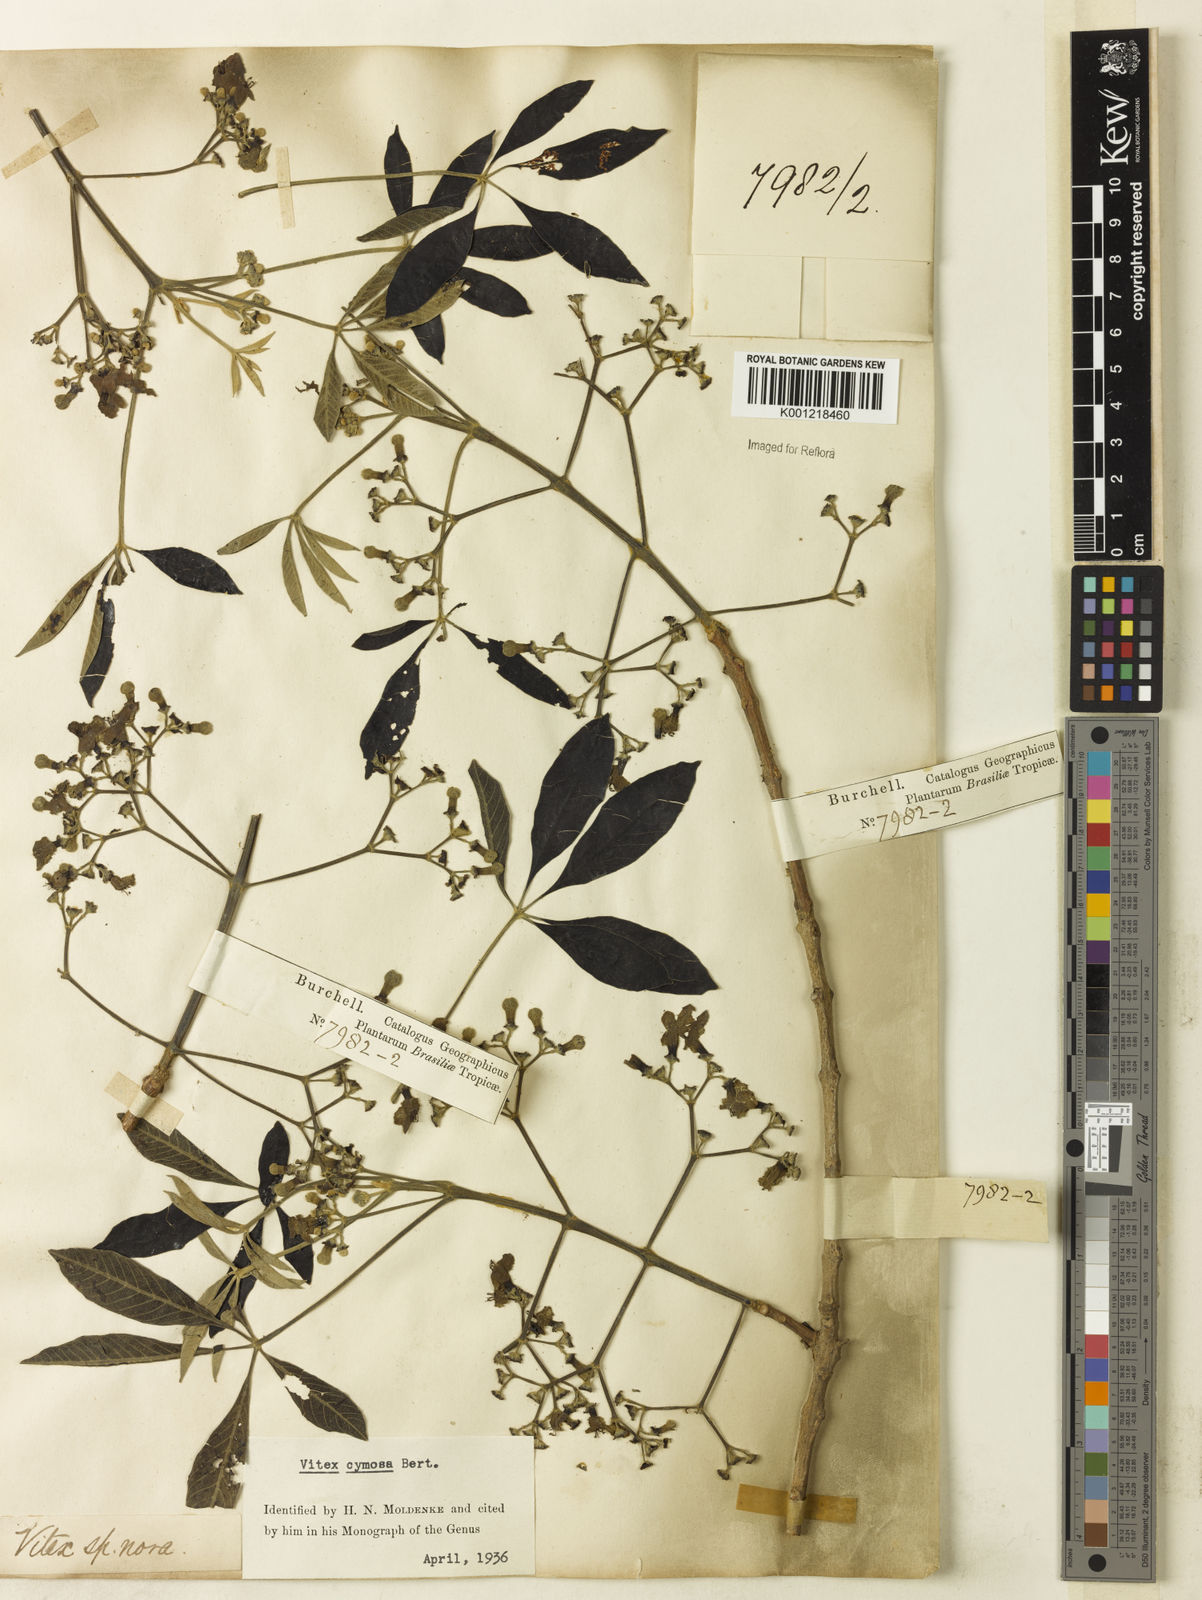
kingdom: Plantae
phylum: Tracheophyta
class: Magnoliopsida
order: Lamiales
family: Lamiaceae
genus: Vitex
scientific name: Vitex cymosa
